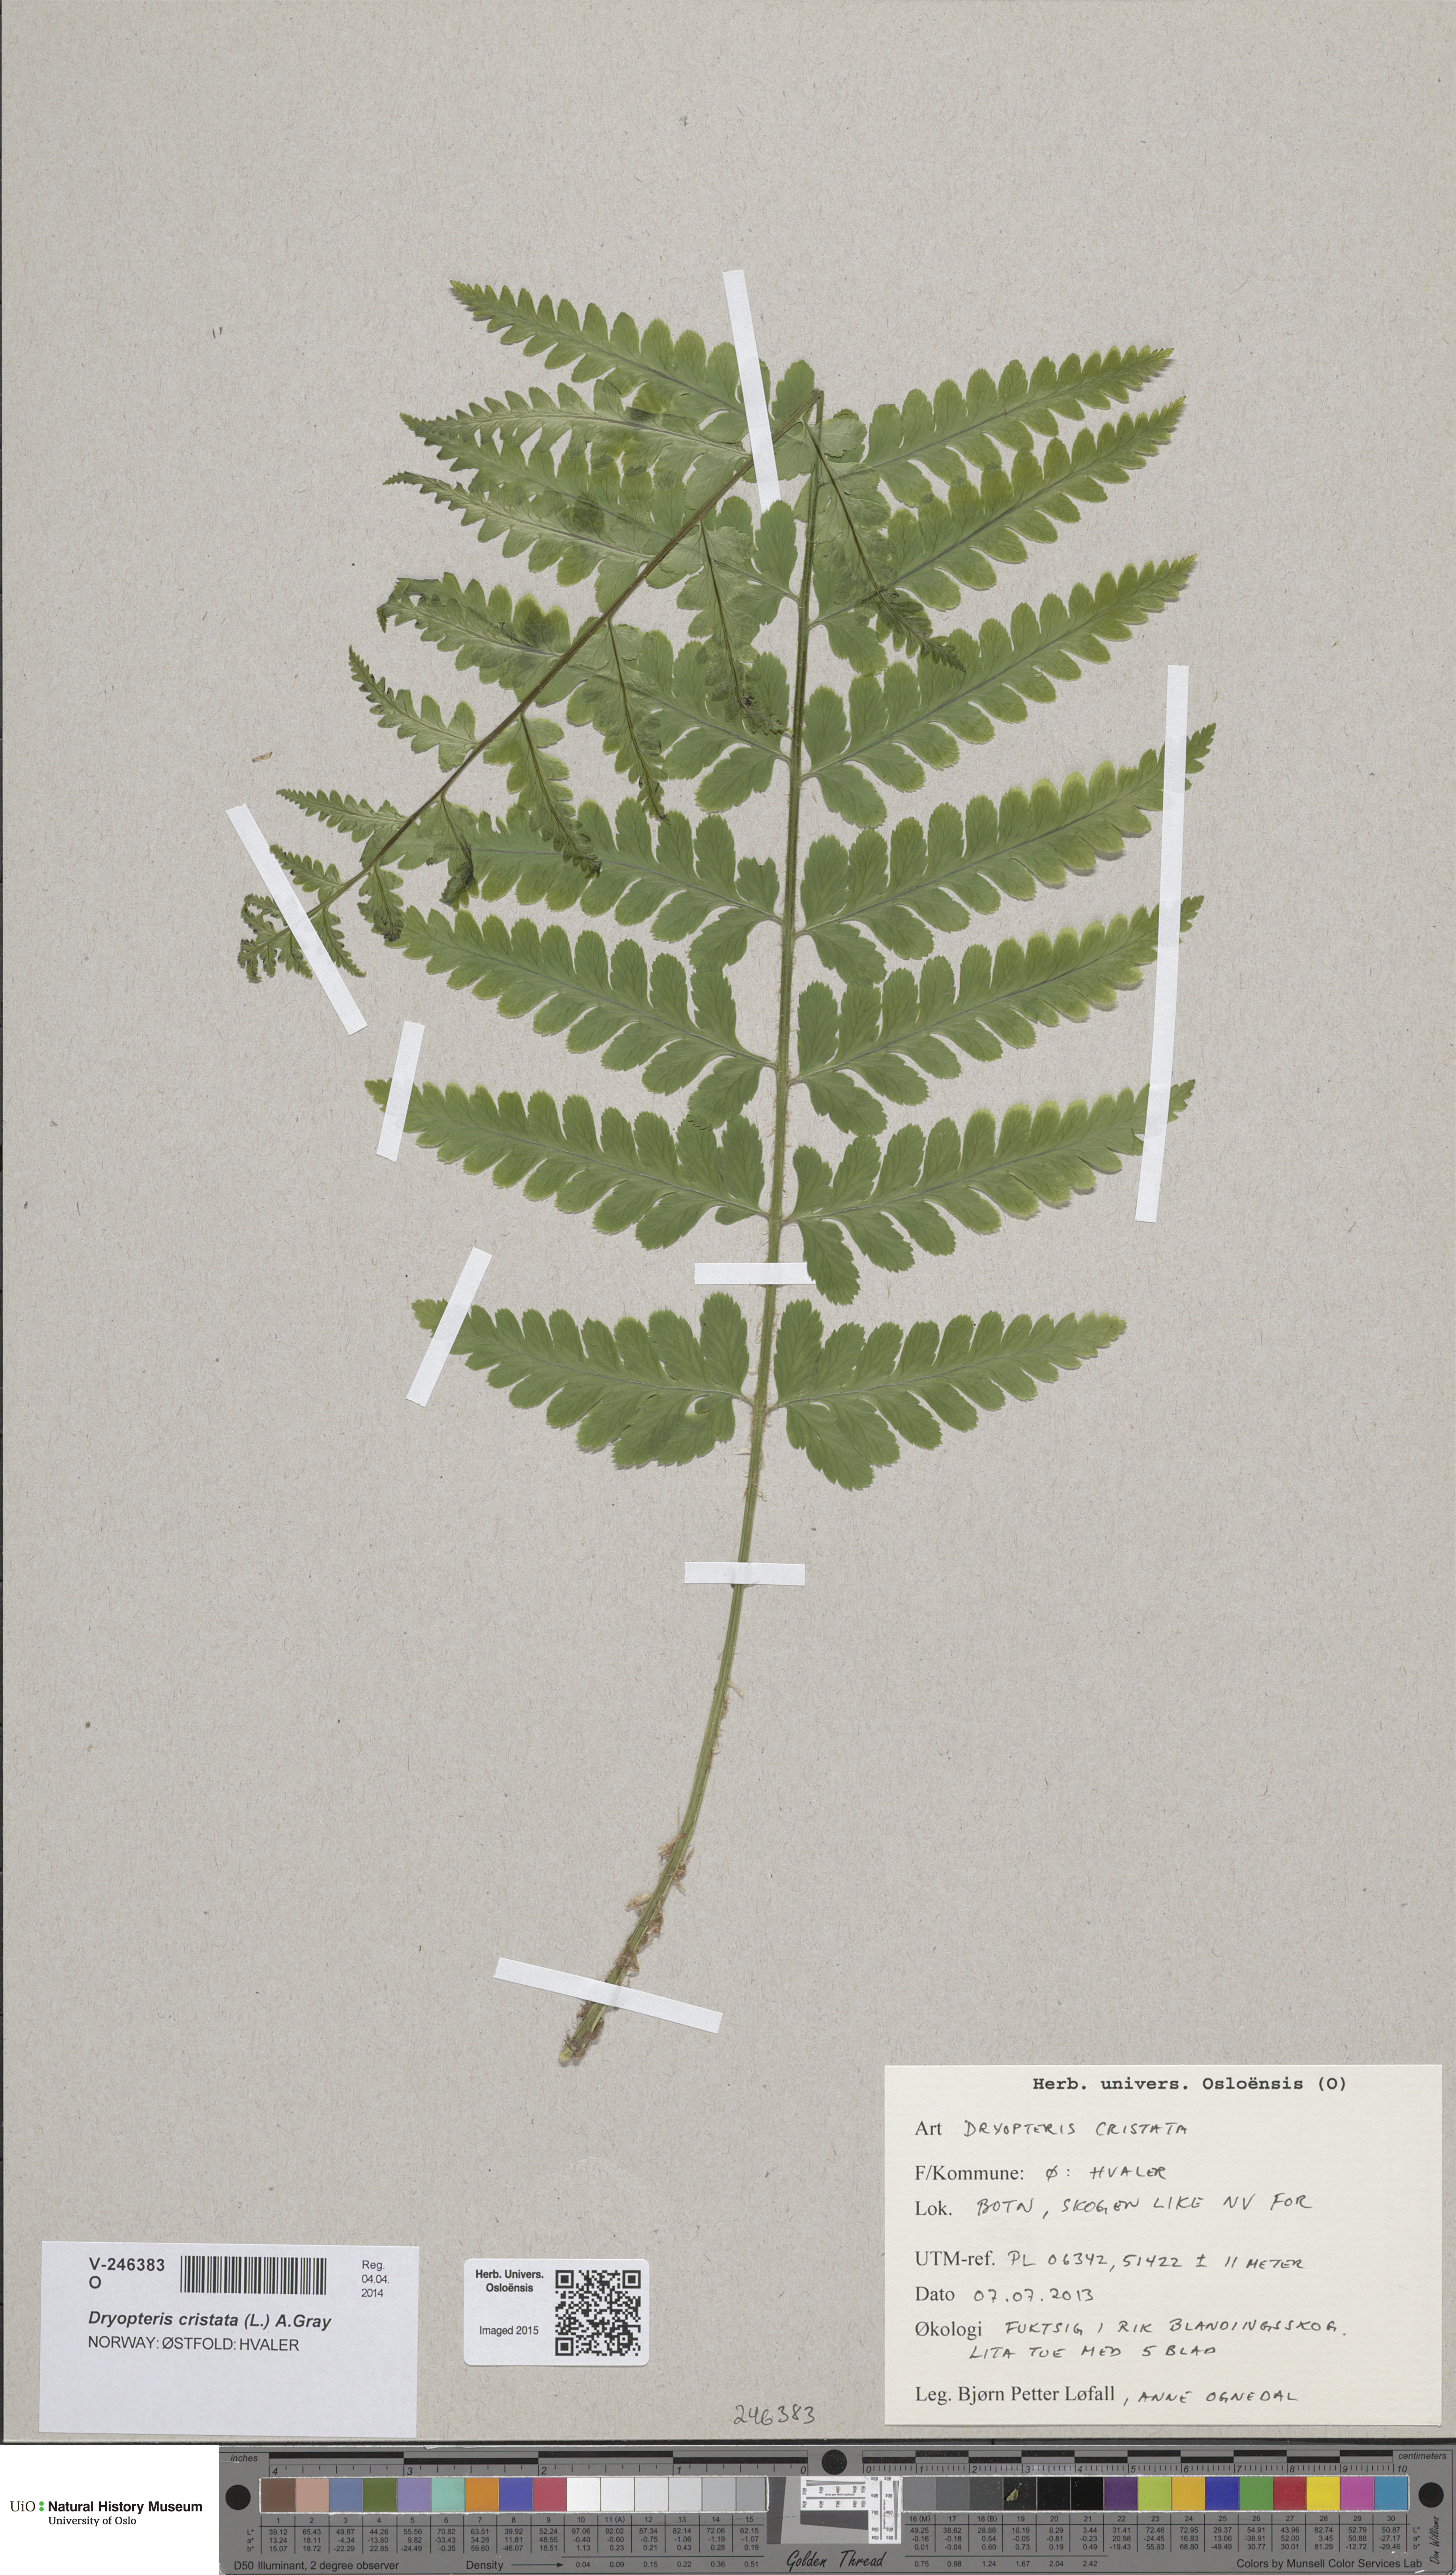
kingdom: Plantae
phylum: Tracheophyta
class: Polypodiopsida
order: Polypodiales
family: Dryopteridaceae
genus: Dryopteris
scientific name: Dryopteris filix-mas
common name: Male fern
